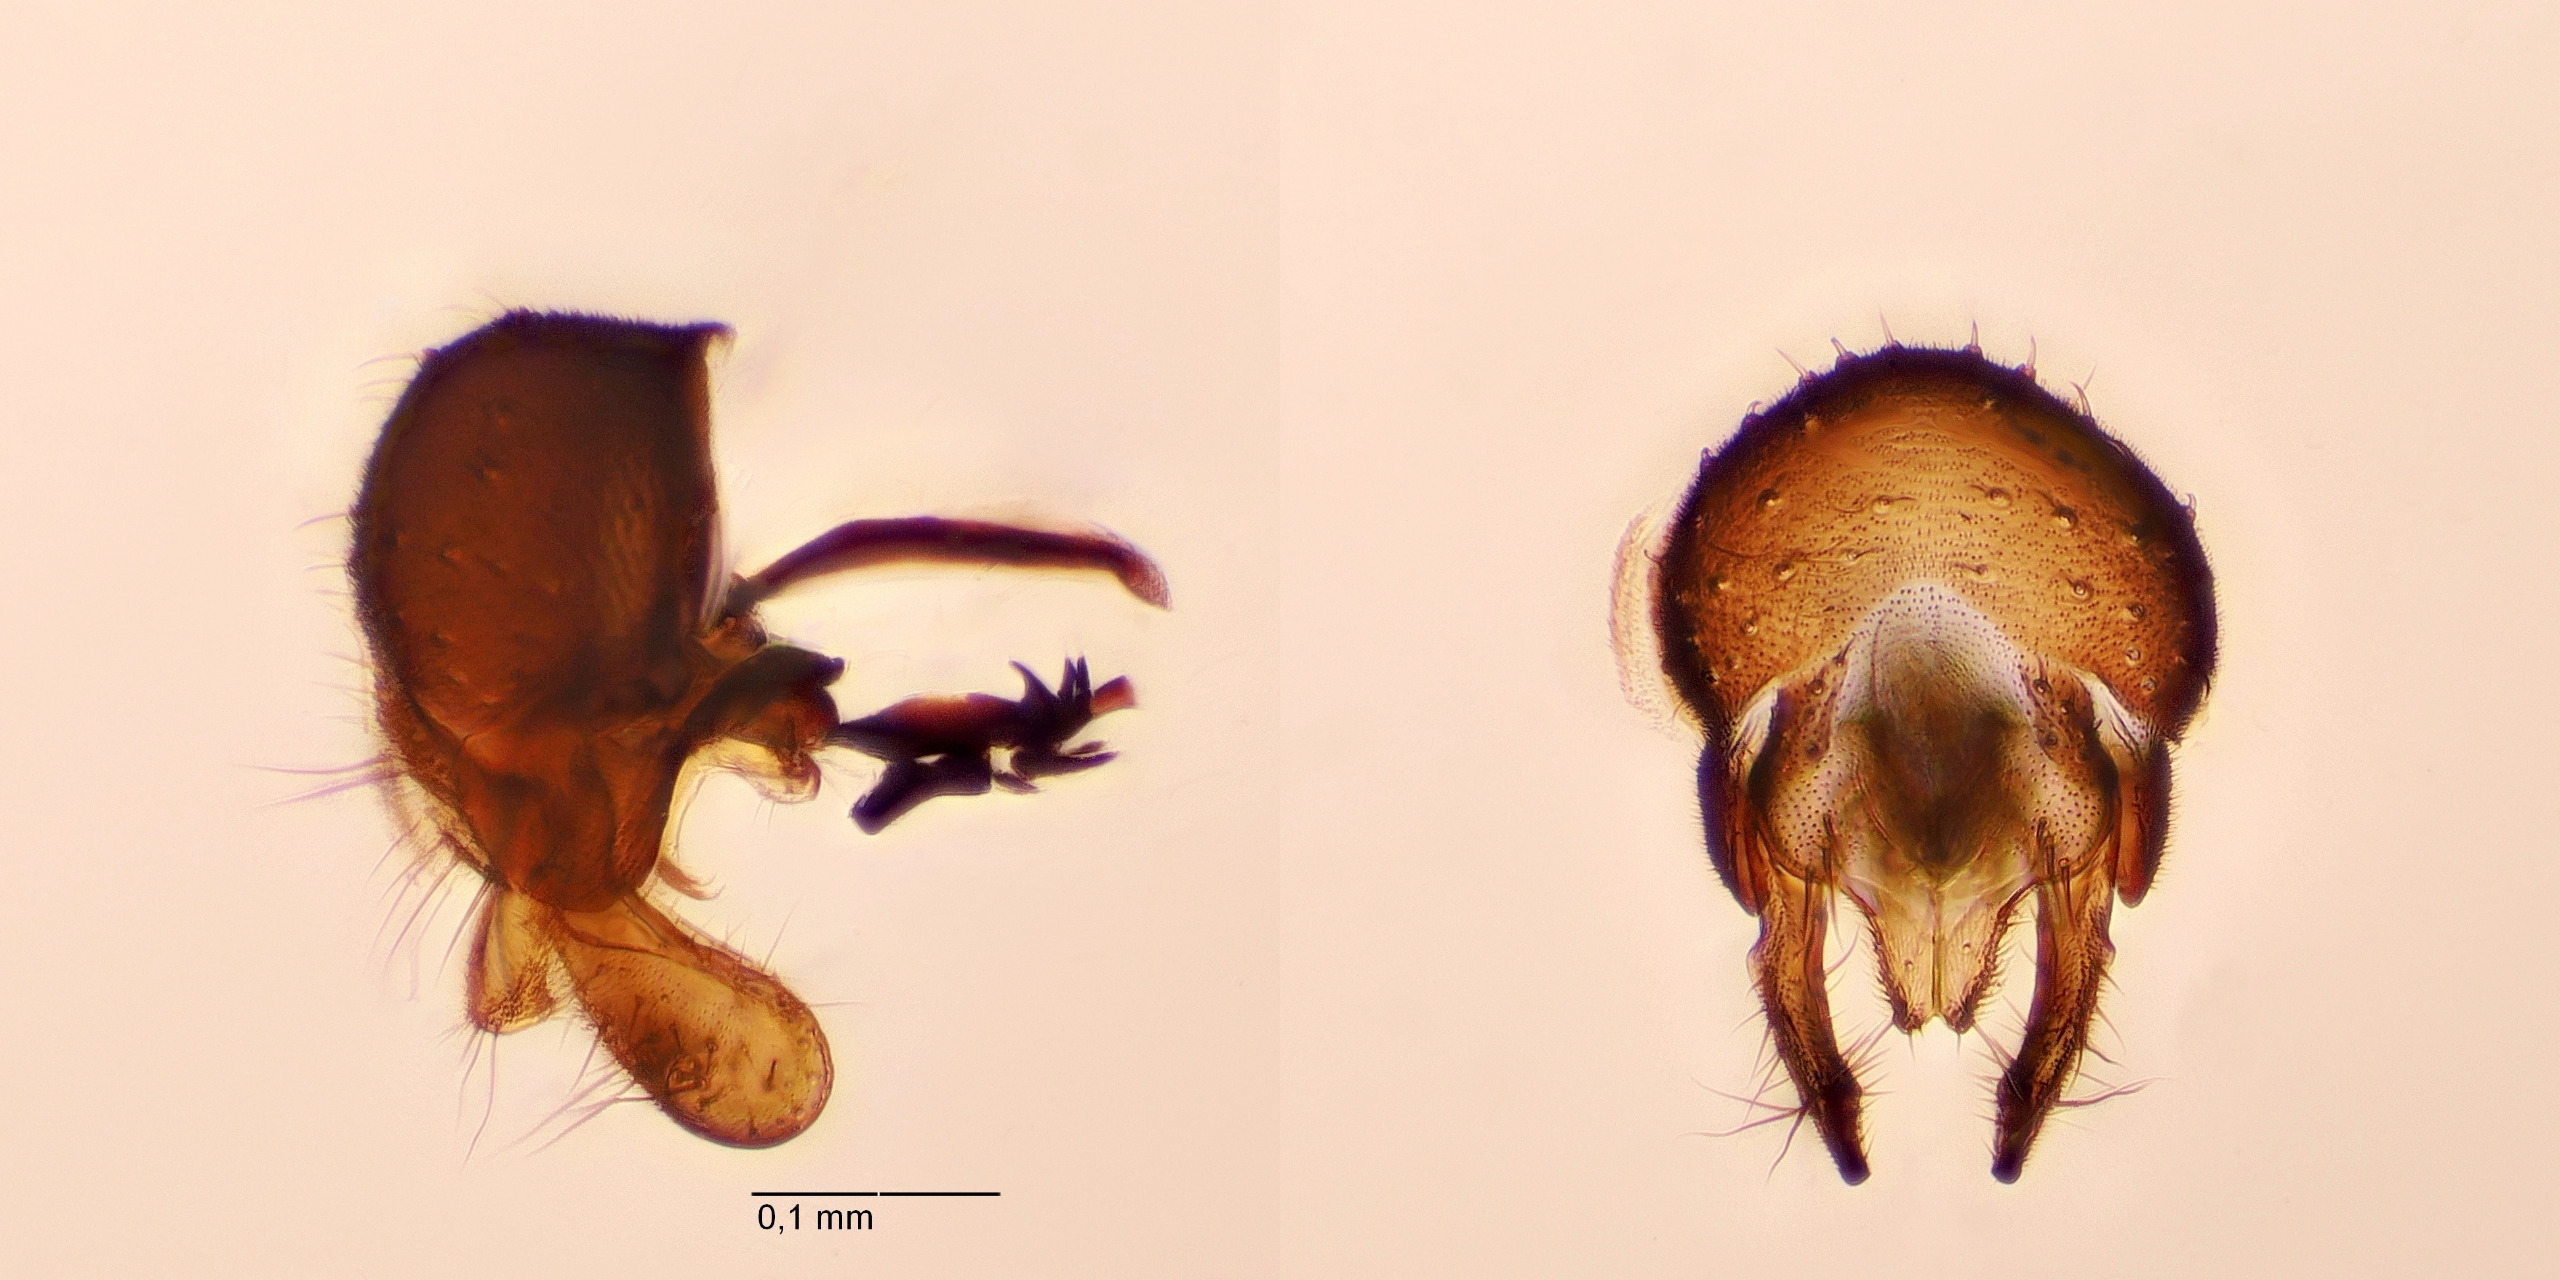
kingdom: Animalia
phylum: Arthropoda
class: Insecta
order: Diptera
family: Sphaeroceridae
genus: Ischiolepta
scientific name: Ischiolepta pusilla
